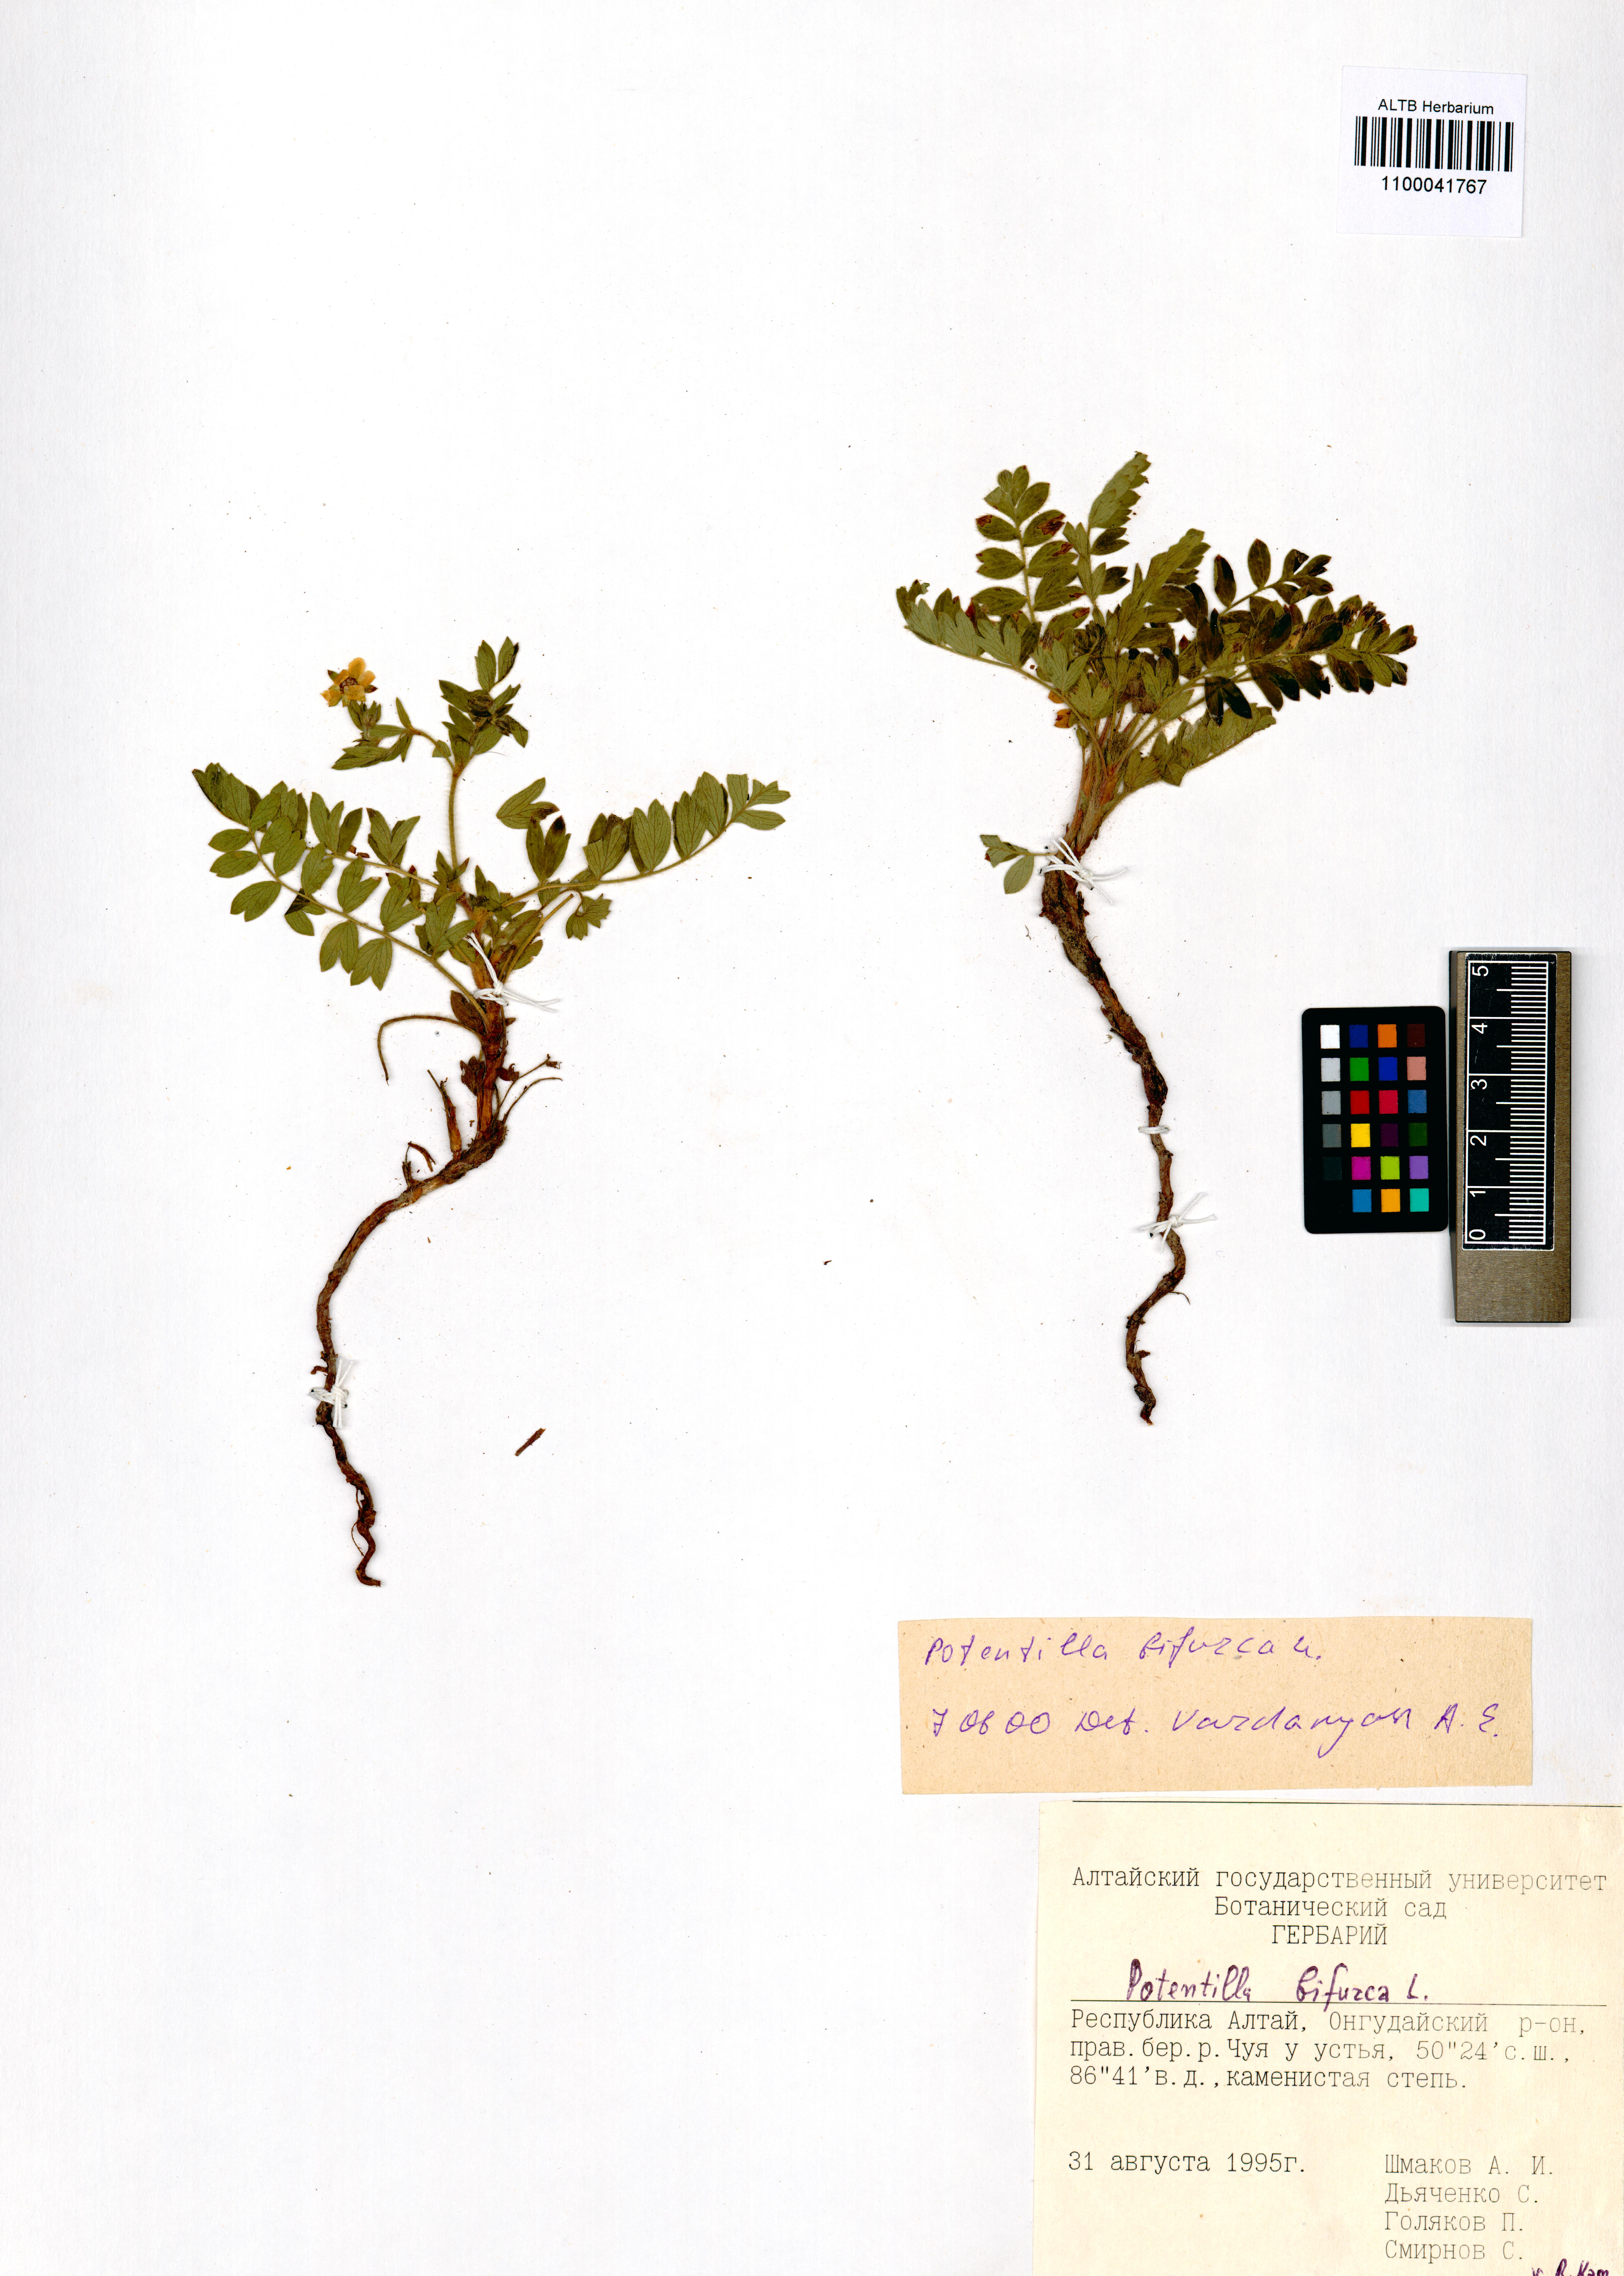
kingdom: Plantae
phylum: Tracheophyta
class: Magnoliopsida
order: Rosales
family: Rosaceae
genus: Sibbaldianthe
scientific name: Sibbaldianthe bifurca
